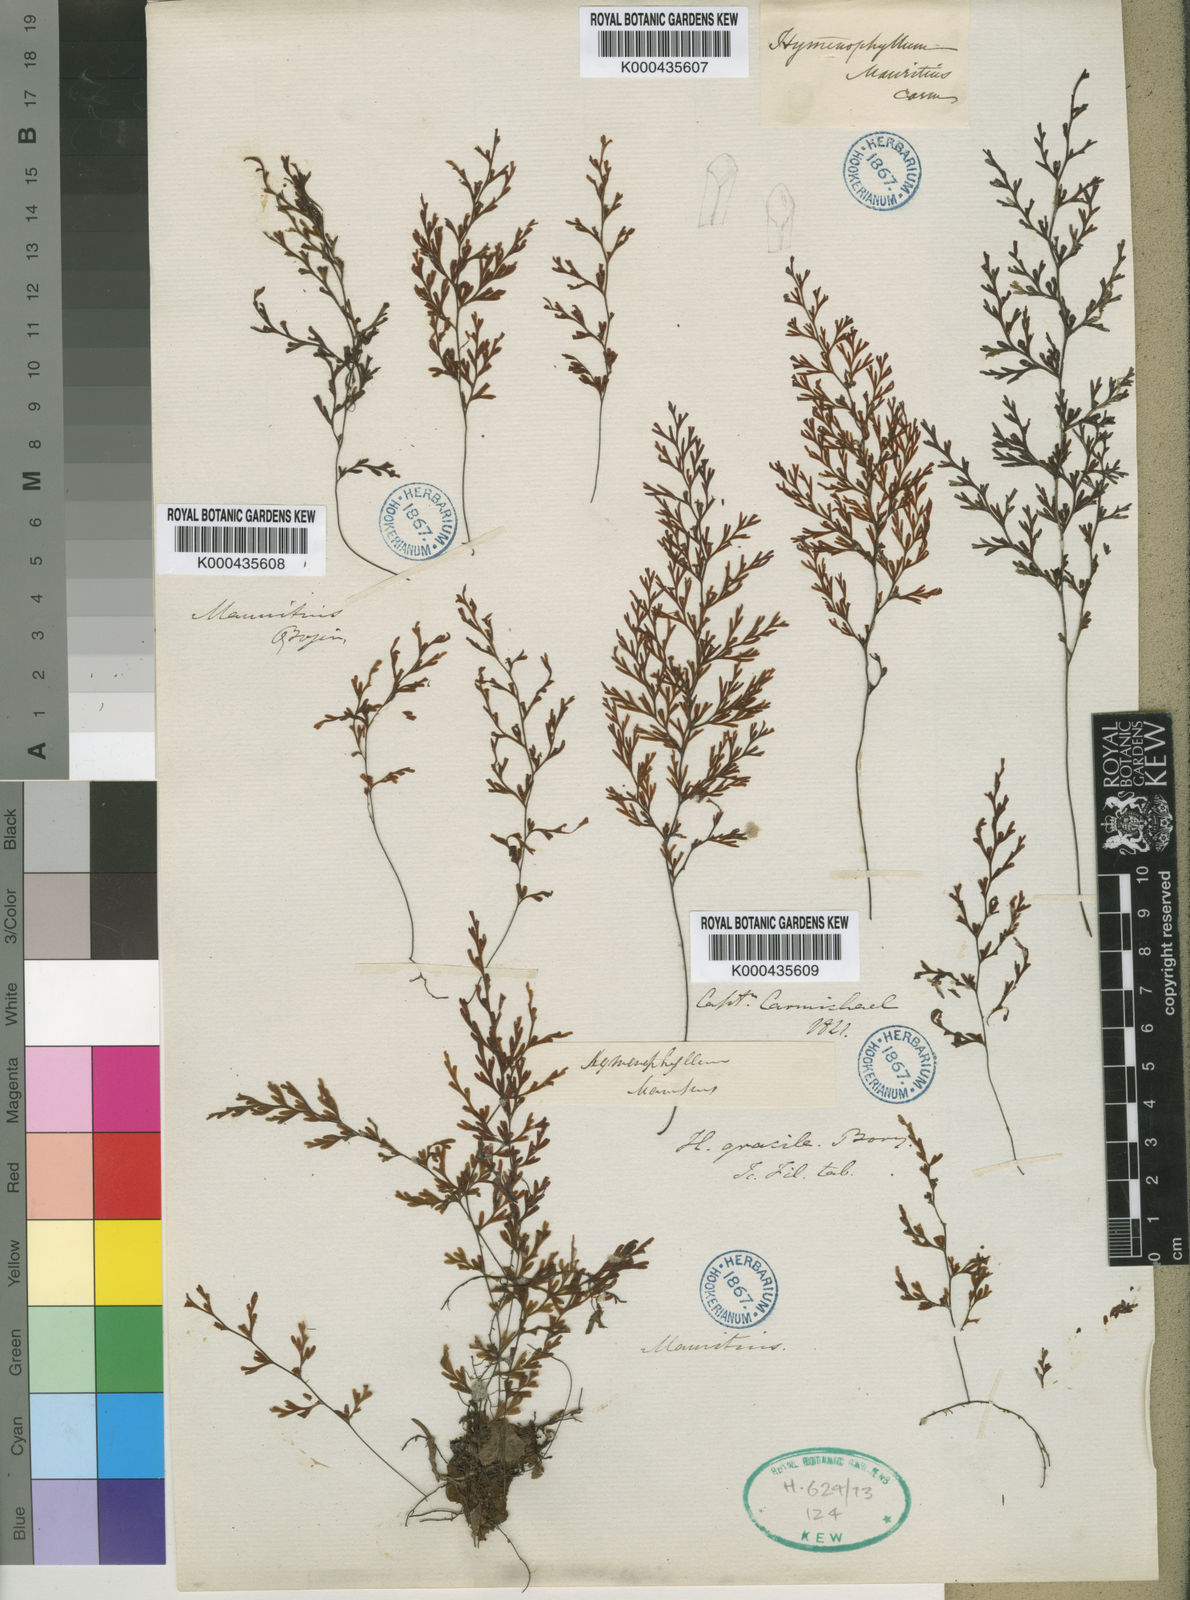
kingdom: Plantae
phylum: Tracheophyta
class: Polypodiopsida
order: Hymenophyllales
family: Hymenophyllaceae
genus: Hymenophyllum
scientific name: Hymenophyllum inaequale
